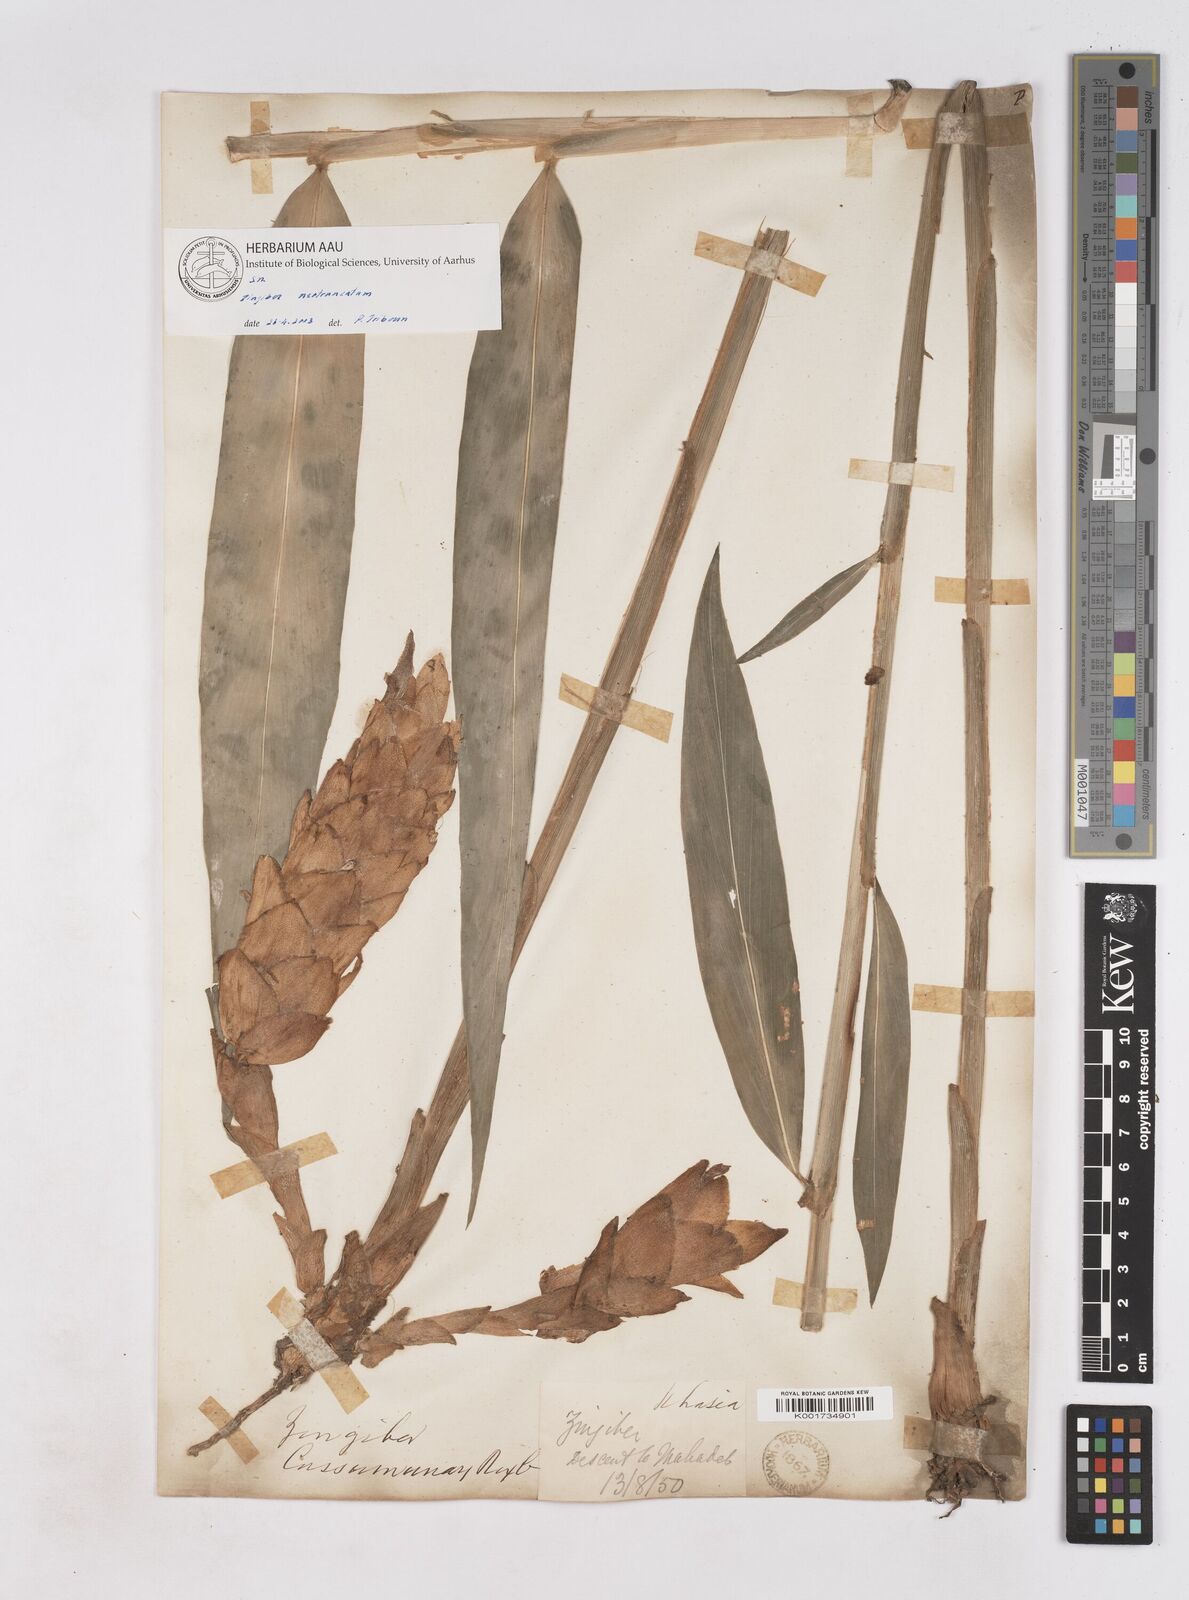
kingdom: Plantae
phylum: Tracheophyta
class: Liliopsida
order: Zingiberales
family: Zingiberaceae
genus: Zingiber
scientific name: Zingiber neotruncatum
